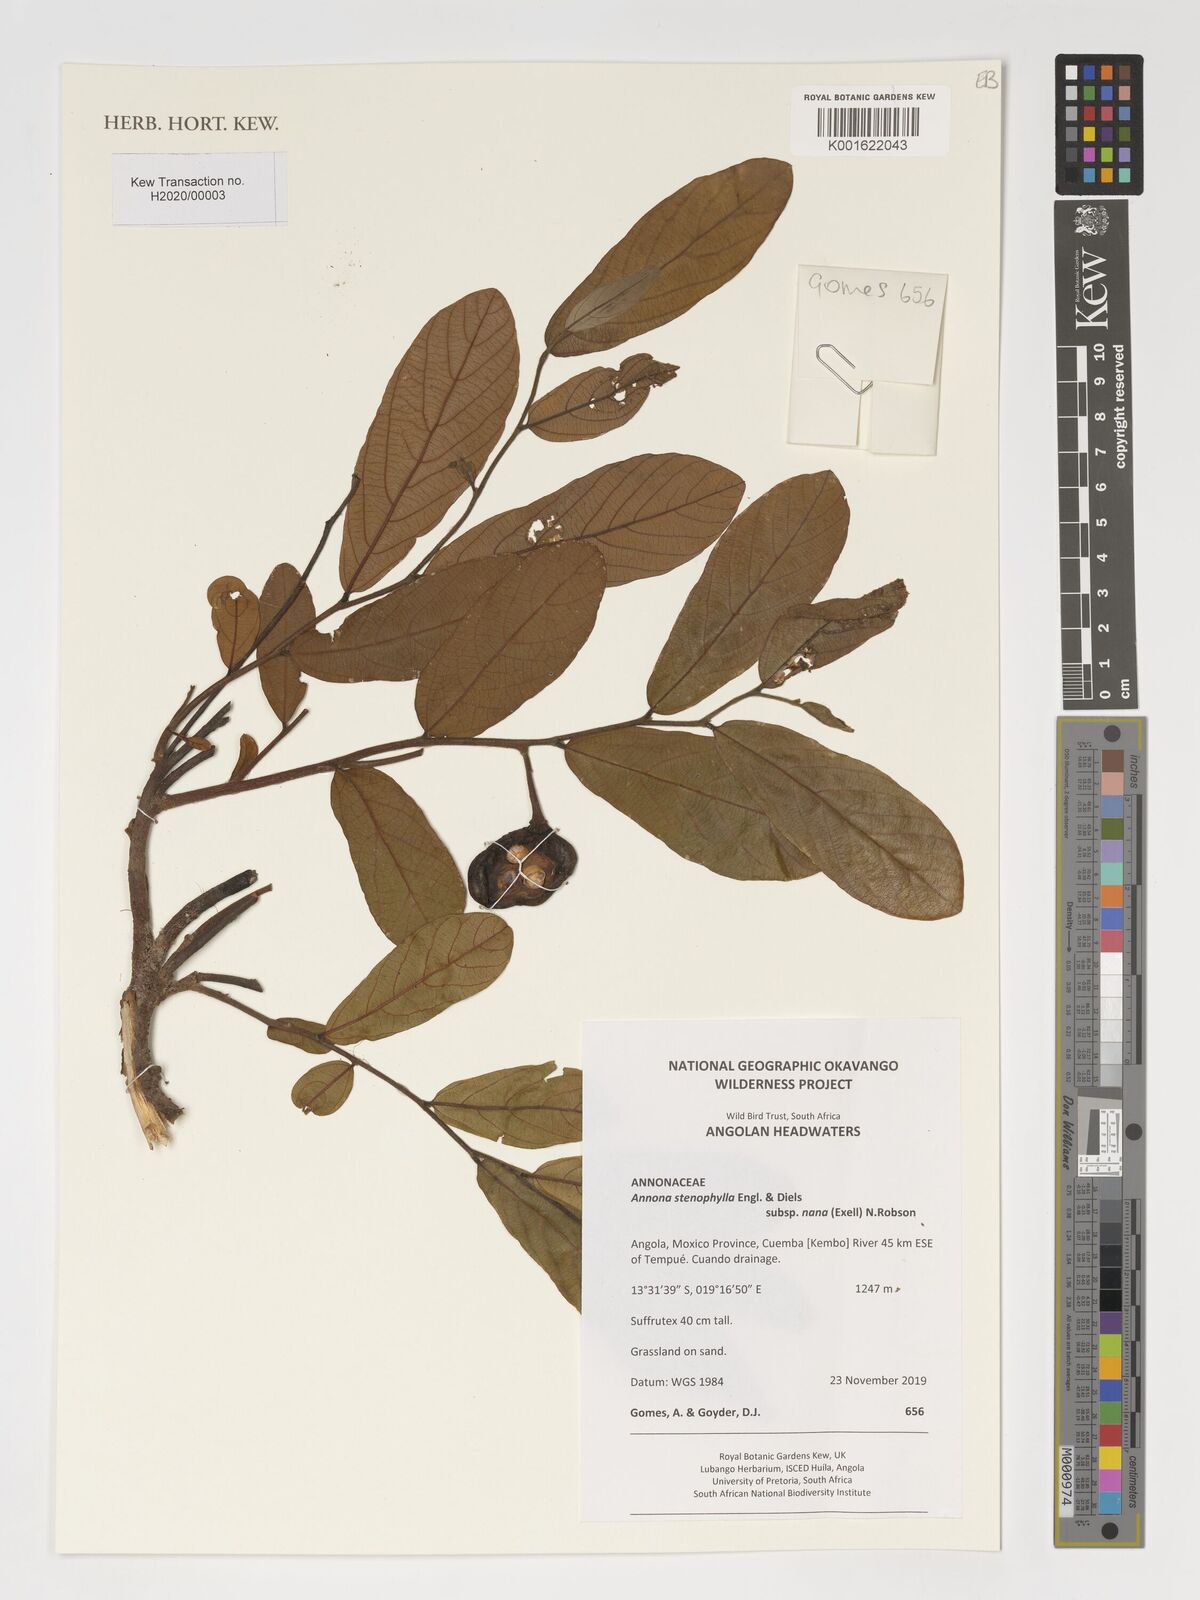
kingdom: Plantae
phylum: Tracheophyta
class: Magnoliopsida
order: Magnoliales
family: Annonaceae
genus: Annona
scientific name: Annona stenophylla
